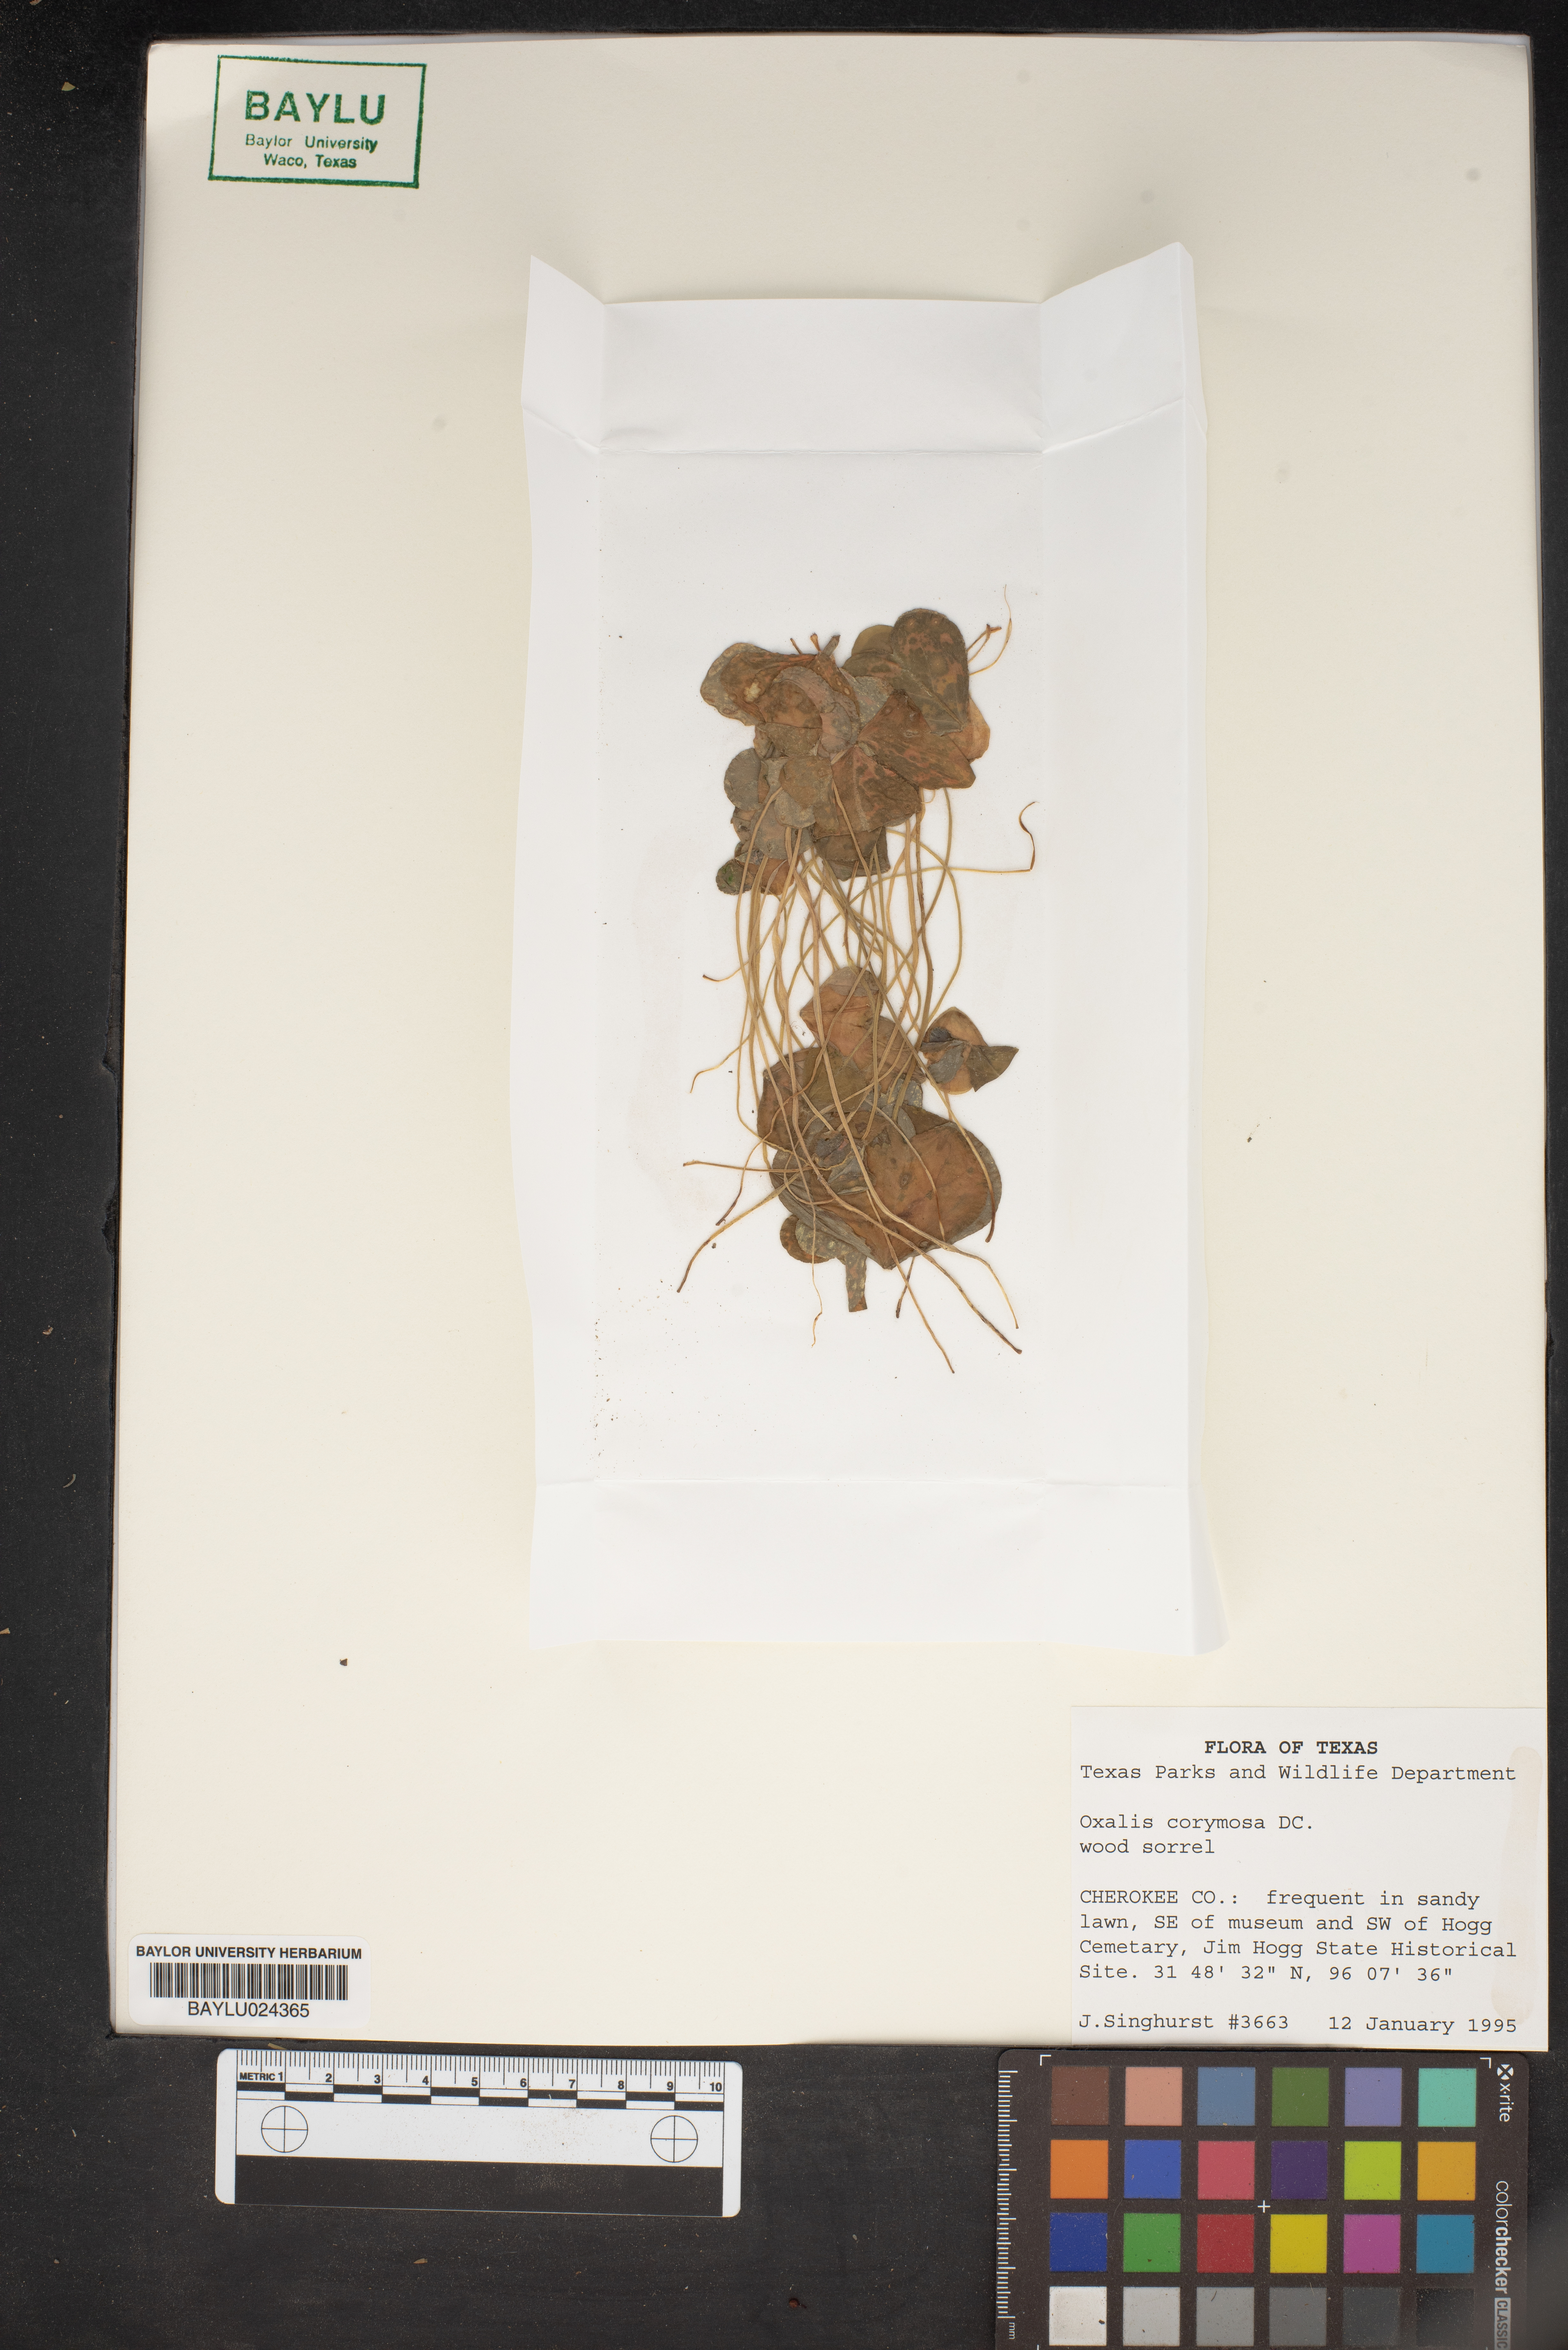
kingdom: Plantae
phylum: Tracheophyta
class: Magnoliopsida
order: Oxalidales
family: Oxalidaceae
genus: Oxalis
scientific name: Oxalis debilis
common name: Large-flowered pink-sorrel
